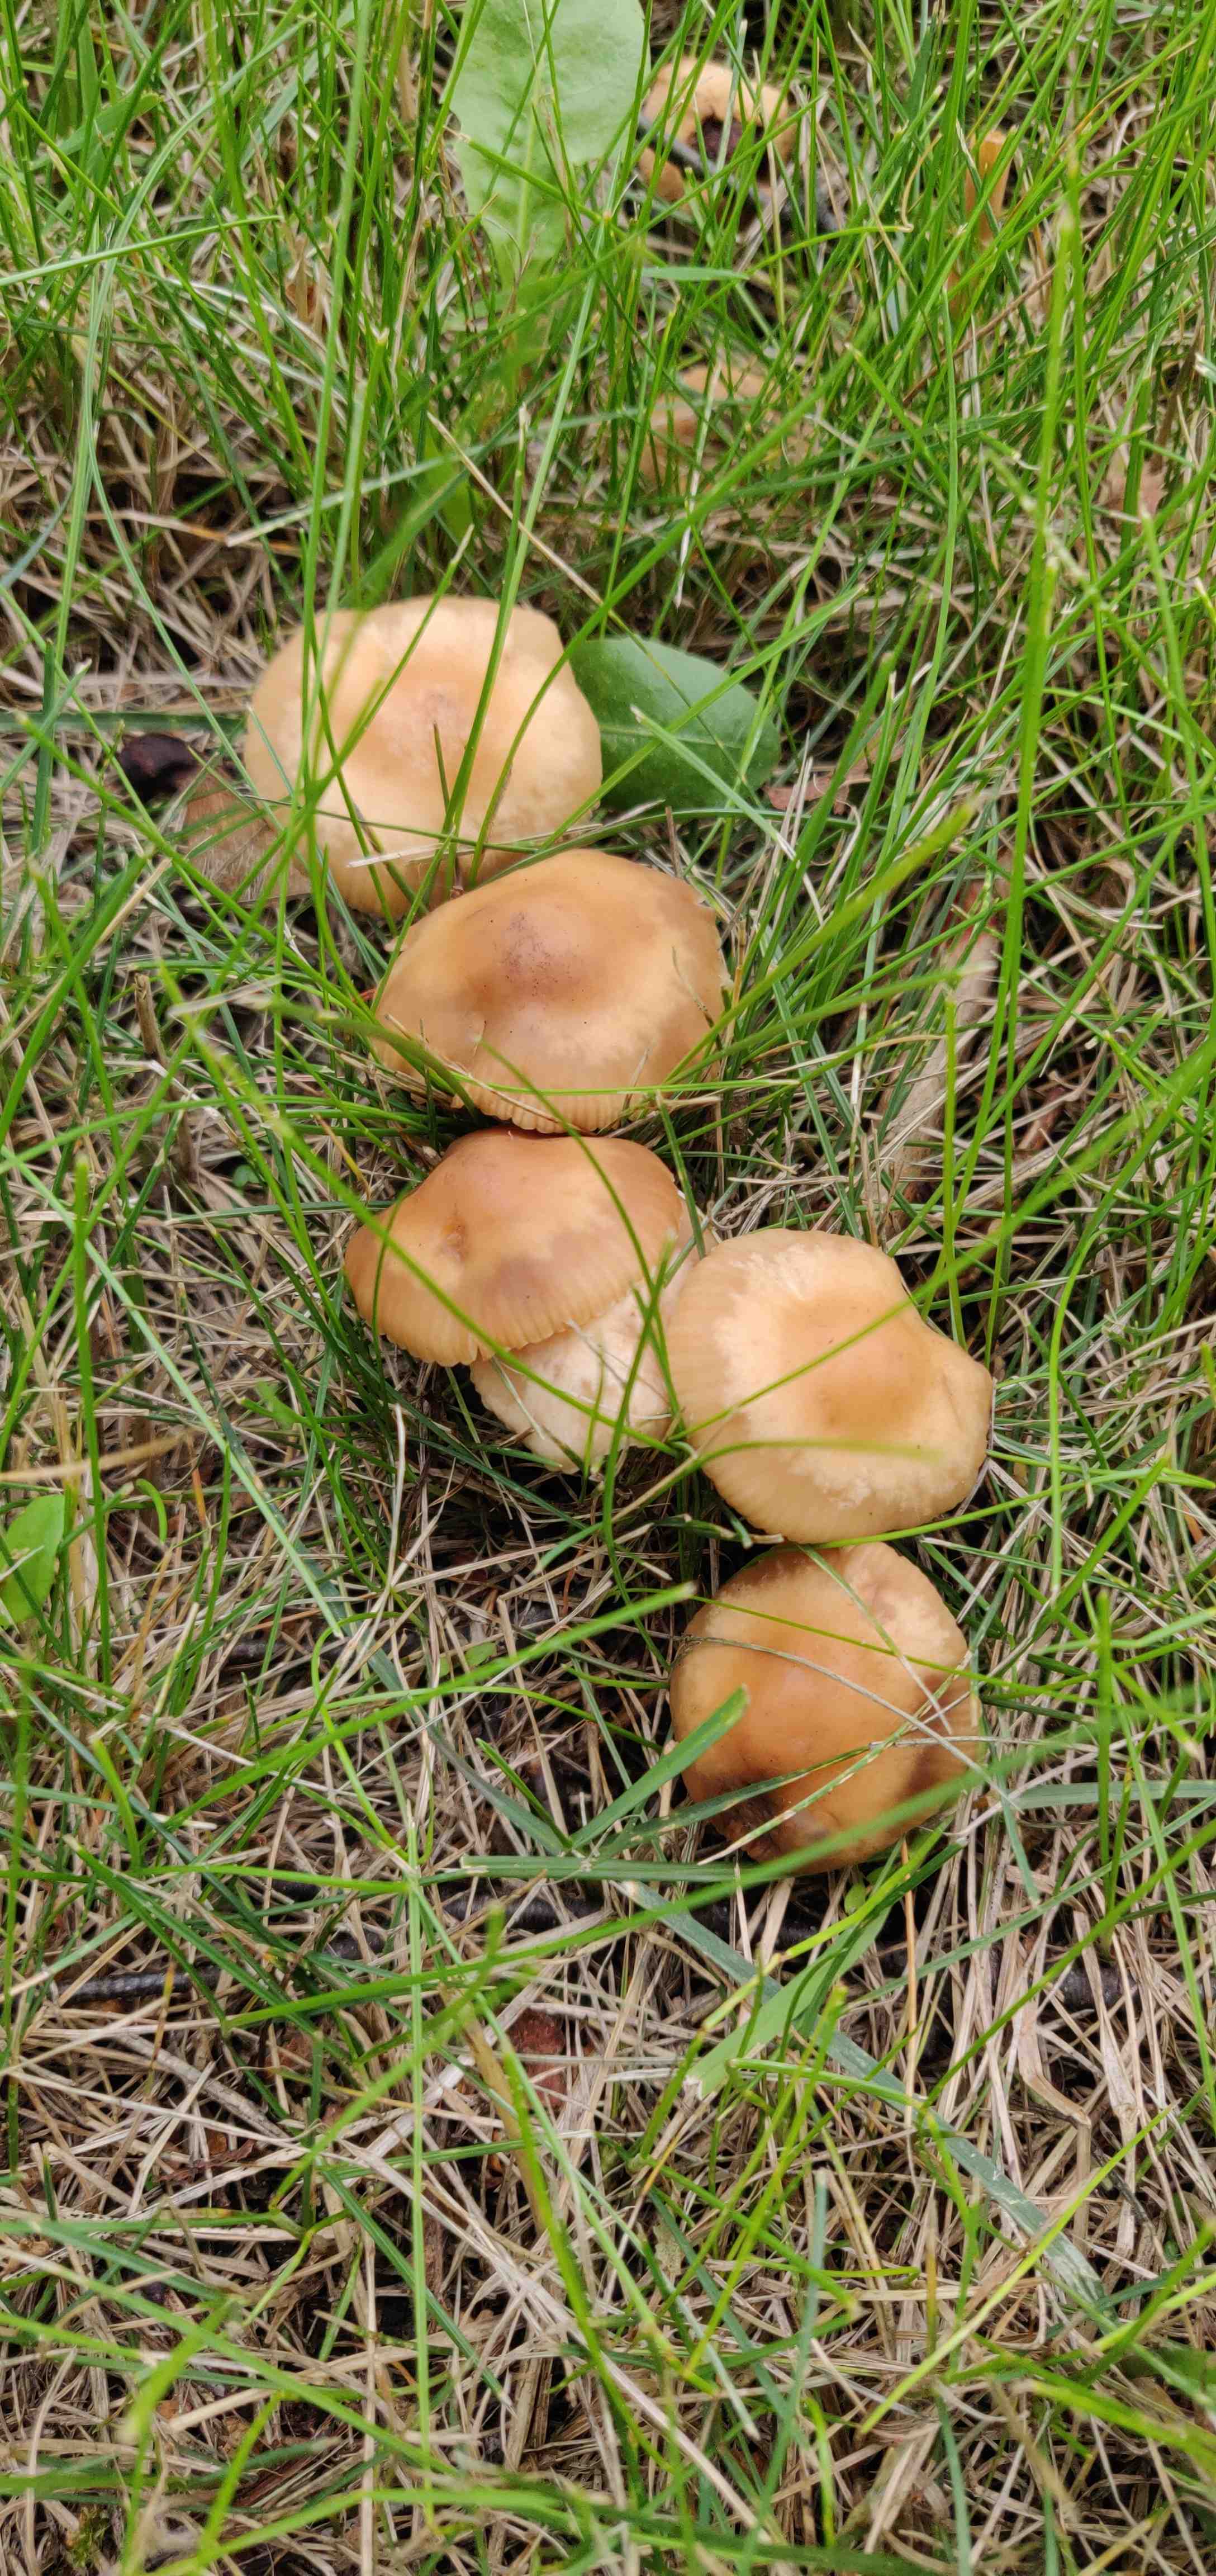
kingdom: Fungi
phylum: Basidiomycota
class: Agaricomycetes
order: Agaricales
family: Marasmiaceae
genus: Marasmius
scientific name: Marasmius oreades
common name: elledans-bruskhat
